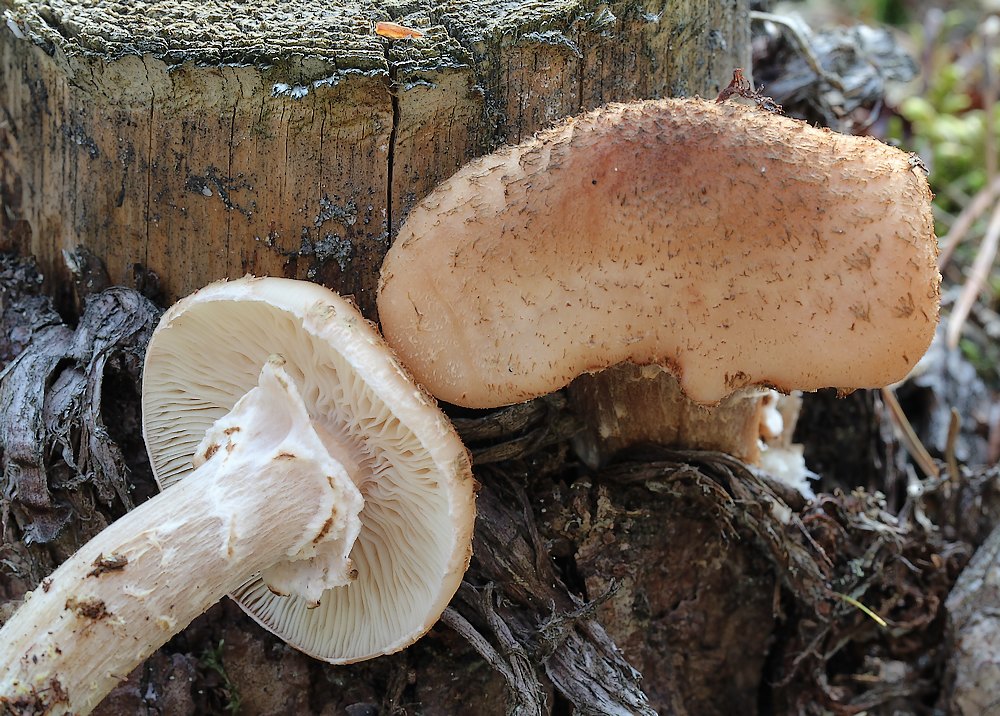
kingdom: Fungi
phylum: Basidiomycota
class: Agaricomycetes
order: Agaricales
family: Physalacriaceae
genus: Armillaria
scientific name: Armillaria ostoyae
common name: mørk honningsvamp
